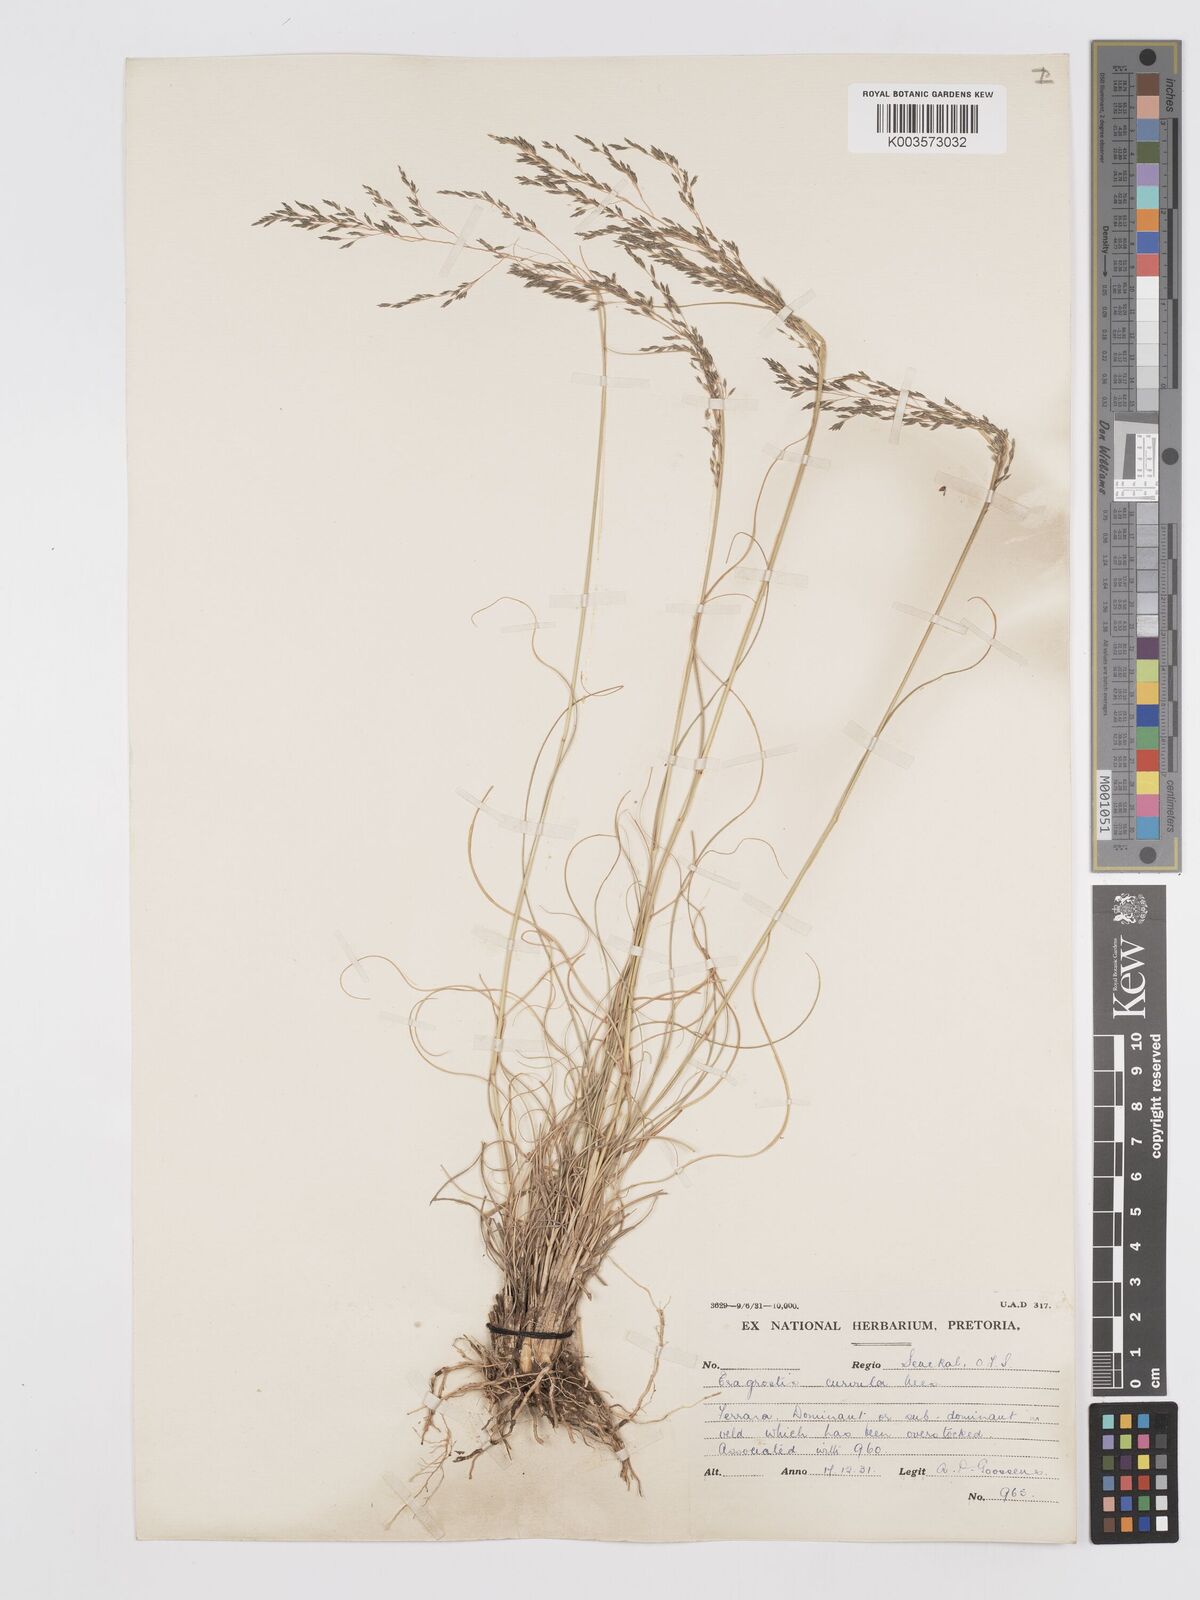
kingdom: Plantae
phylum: Tracheophyta
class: Liliopsida
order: Poales
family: Poaceae
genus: Eragrostis
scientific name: Eragrostis curvula
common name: African love-grass
